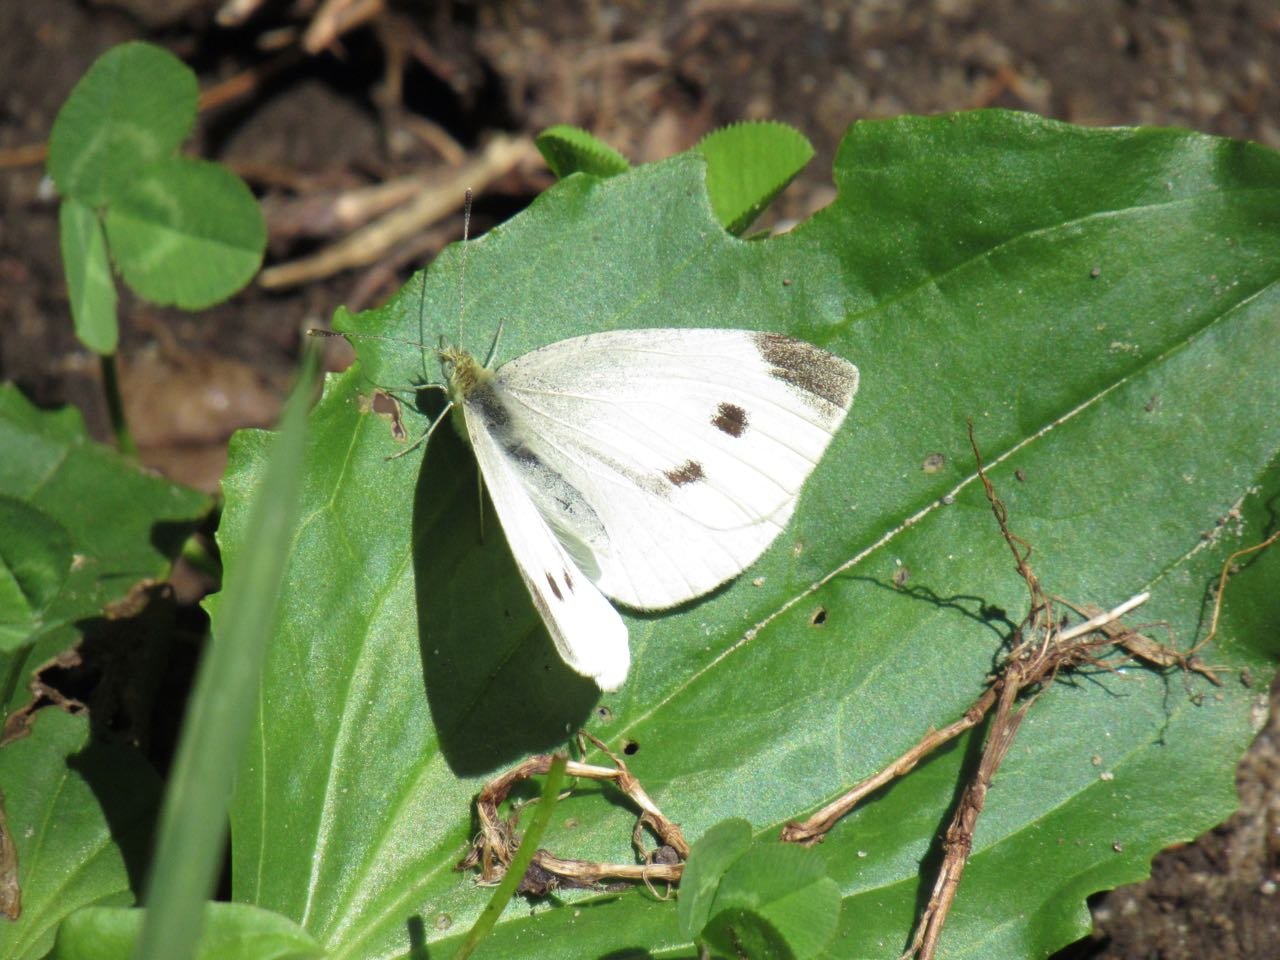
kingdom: Animalia
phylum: Arthropoda
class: Insecta
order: Lepidoptera
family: Pieridae
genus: Pieris
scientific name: Pieris rapae
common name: Cabbage White
